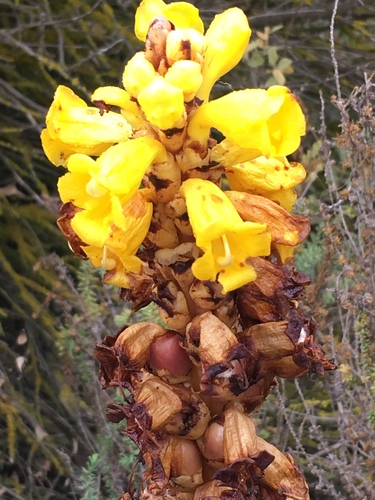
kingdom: Plantae
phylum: Tracheophyta
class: Magnoliopsida
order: Lamiales
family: Orobanchaceae
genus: Cistanche
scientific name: Cistanche phelypaea
